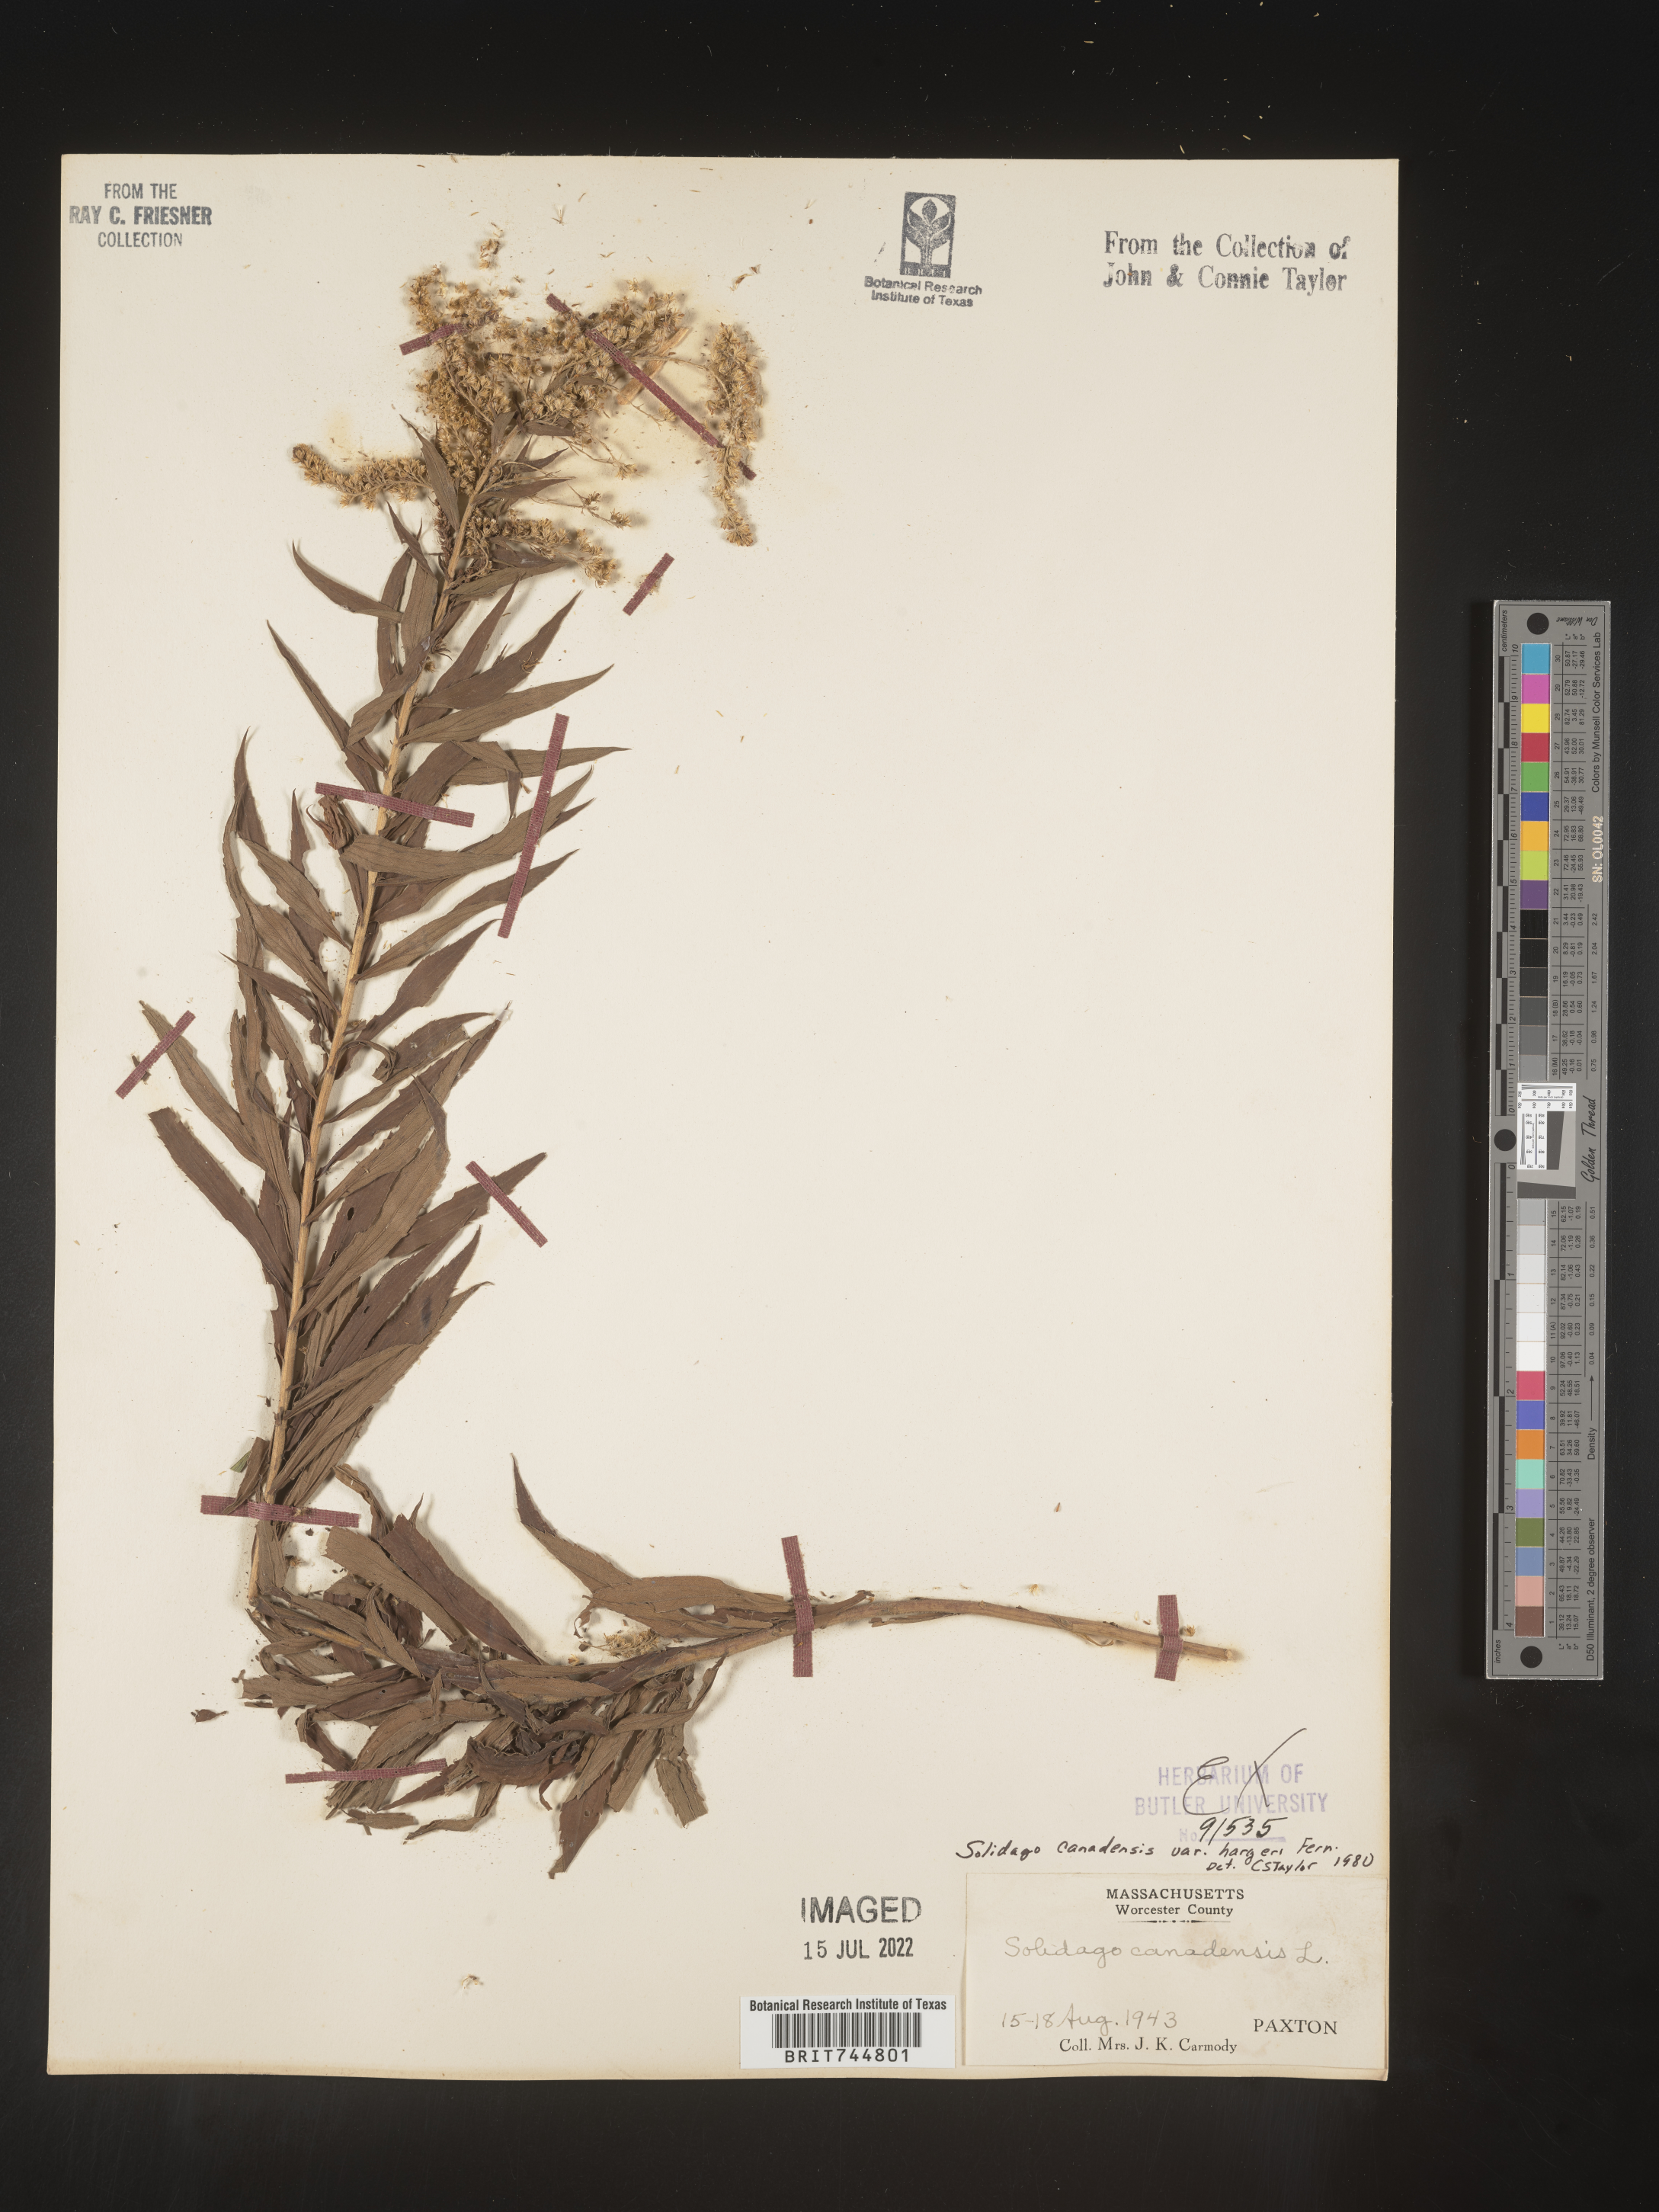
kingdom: Plantae
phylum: Tracheophyta
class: Magnoliopsida
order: Asterales
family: Asteraceae
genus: Solidago
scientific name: Solidago canadensis
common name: Canada goldenrod
